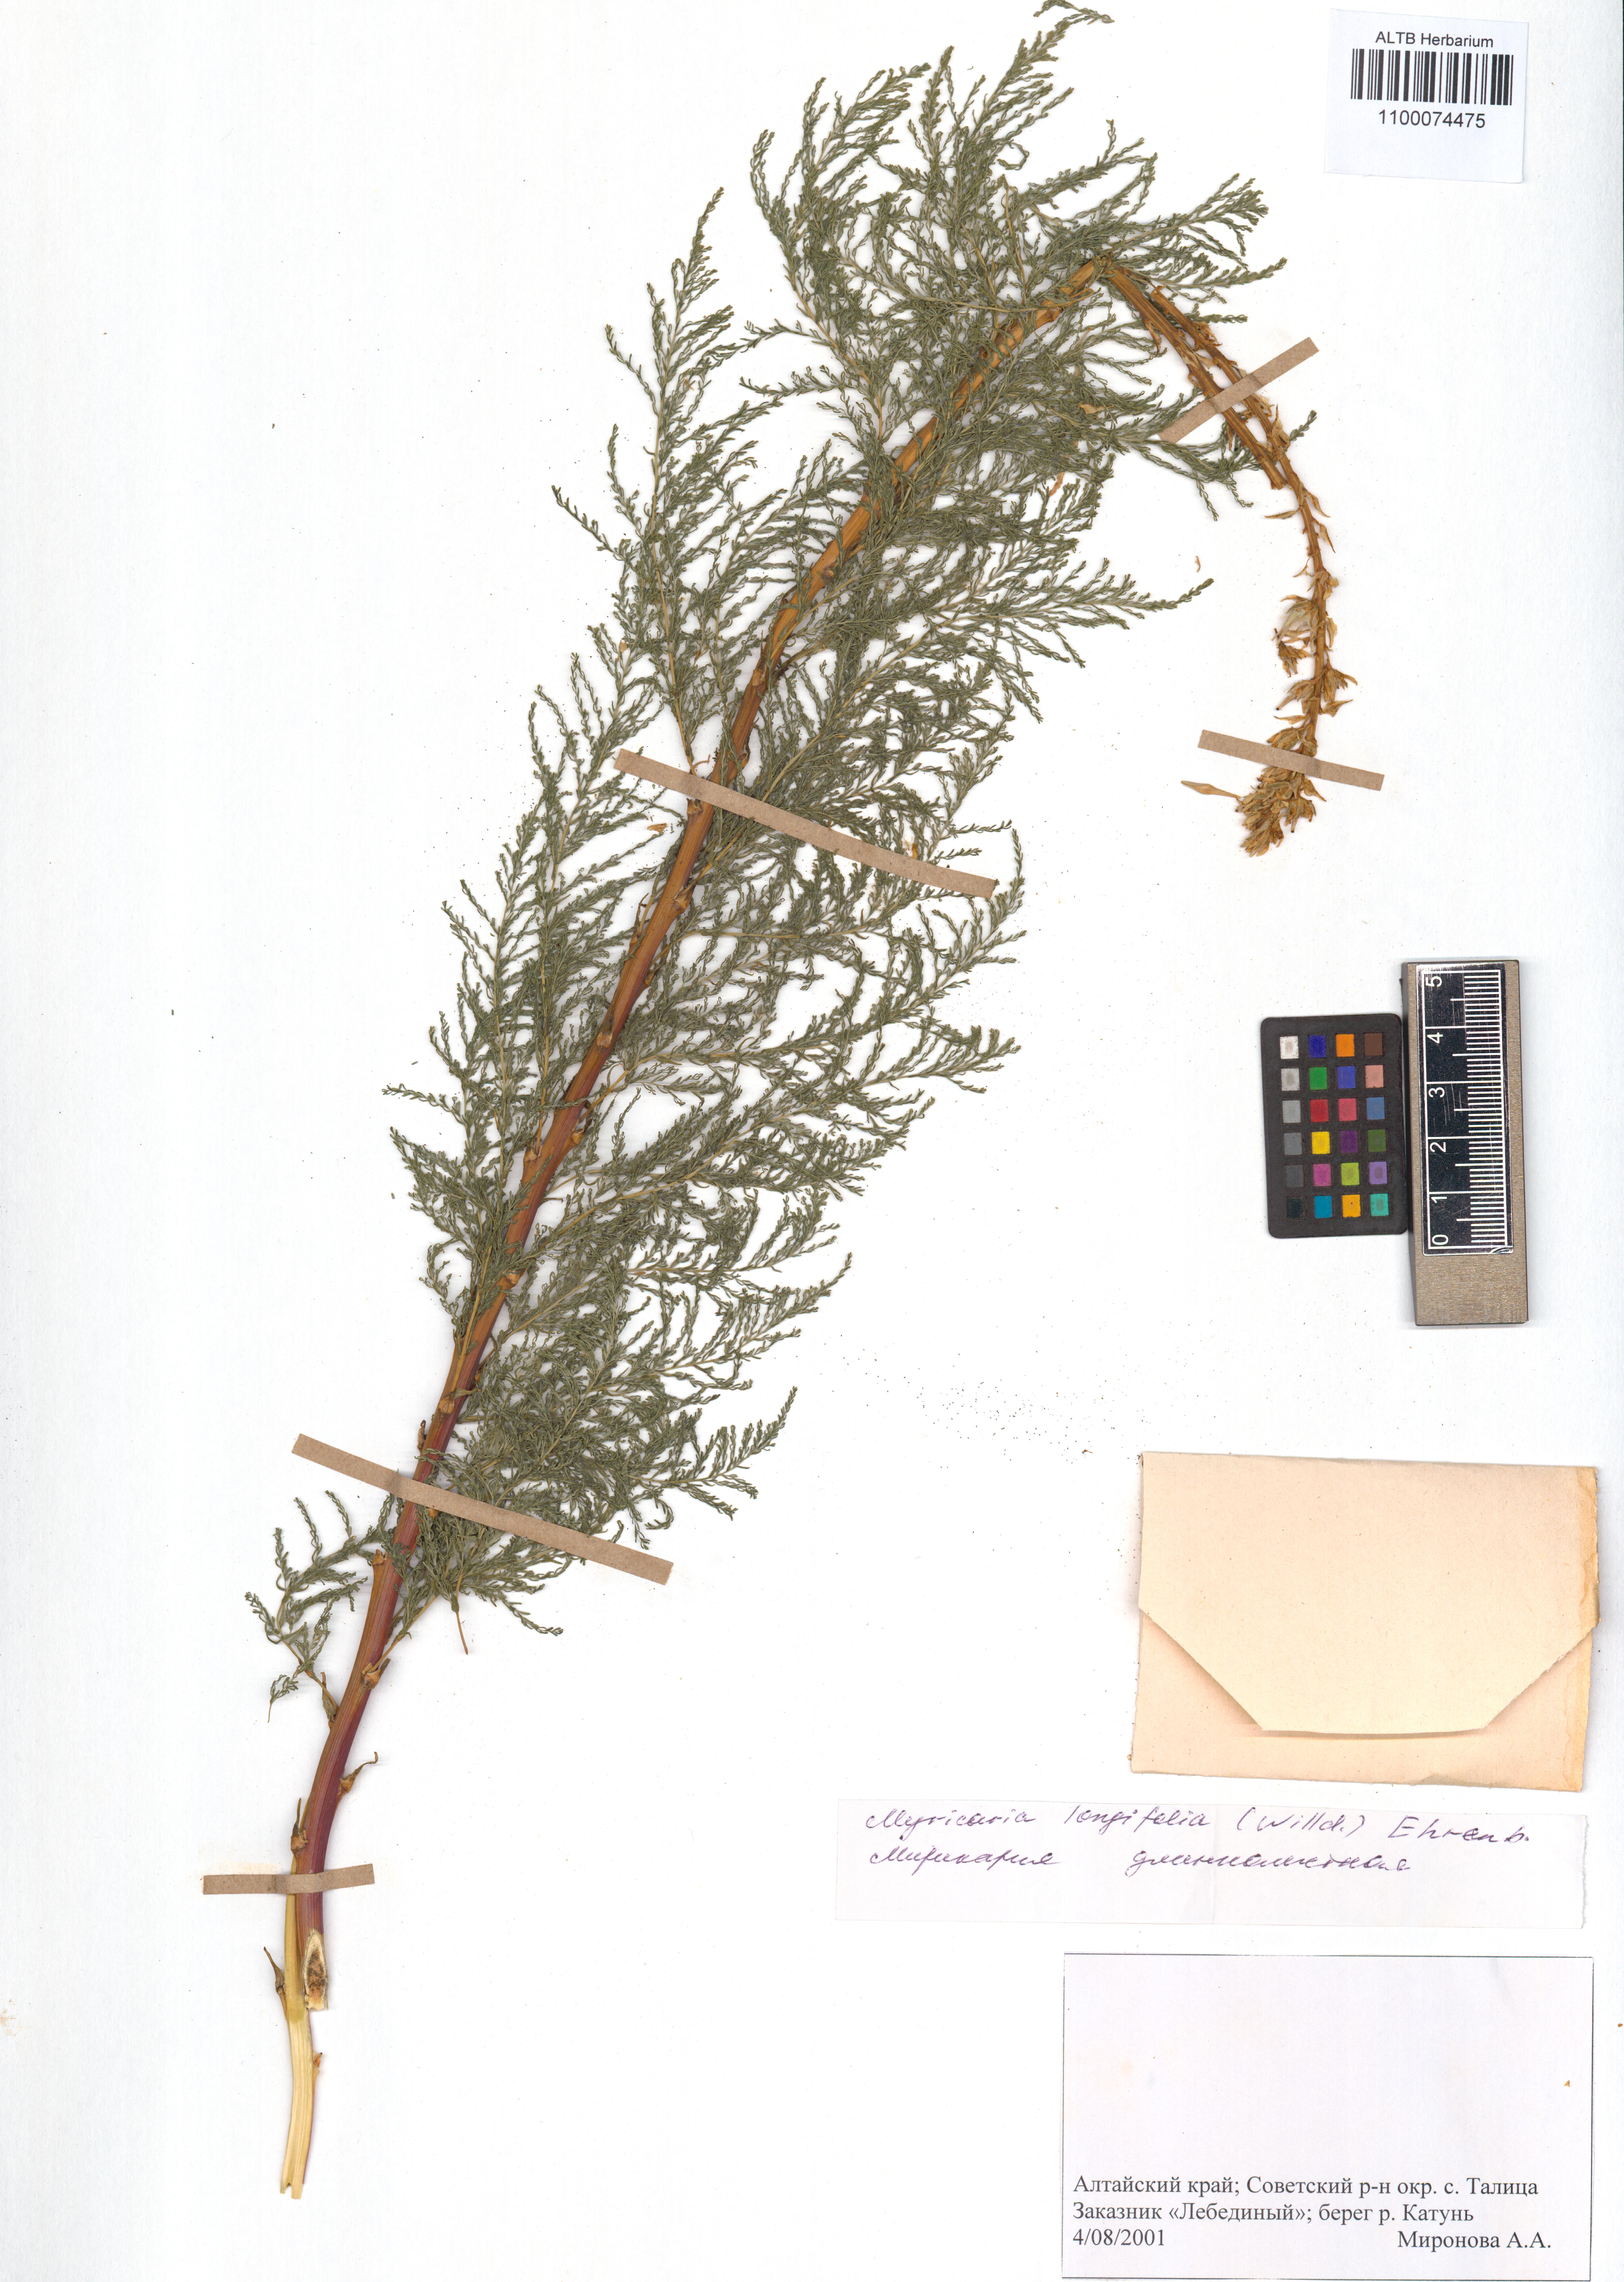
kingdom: Plantae
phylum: Tracheophyta
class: Magnoliopsida
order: Caryophyllales
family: Tamaricaceae
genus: Myricaria
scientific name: Myricaria longifolia
